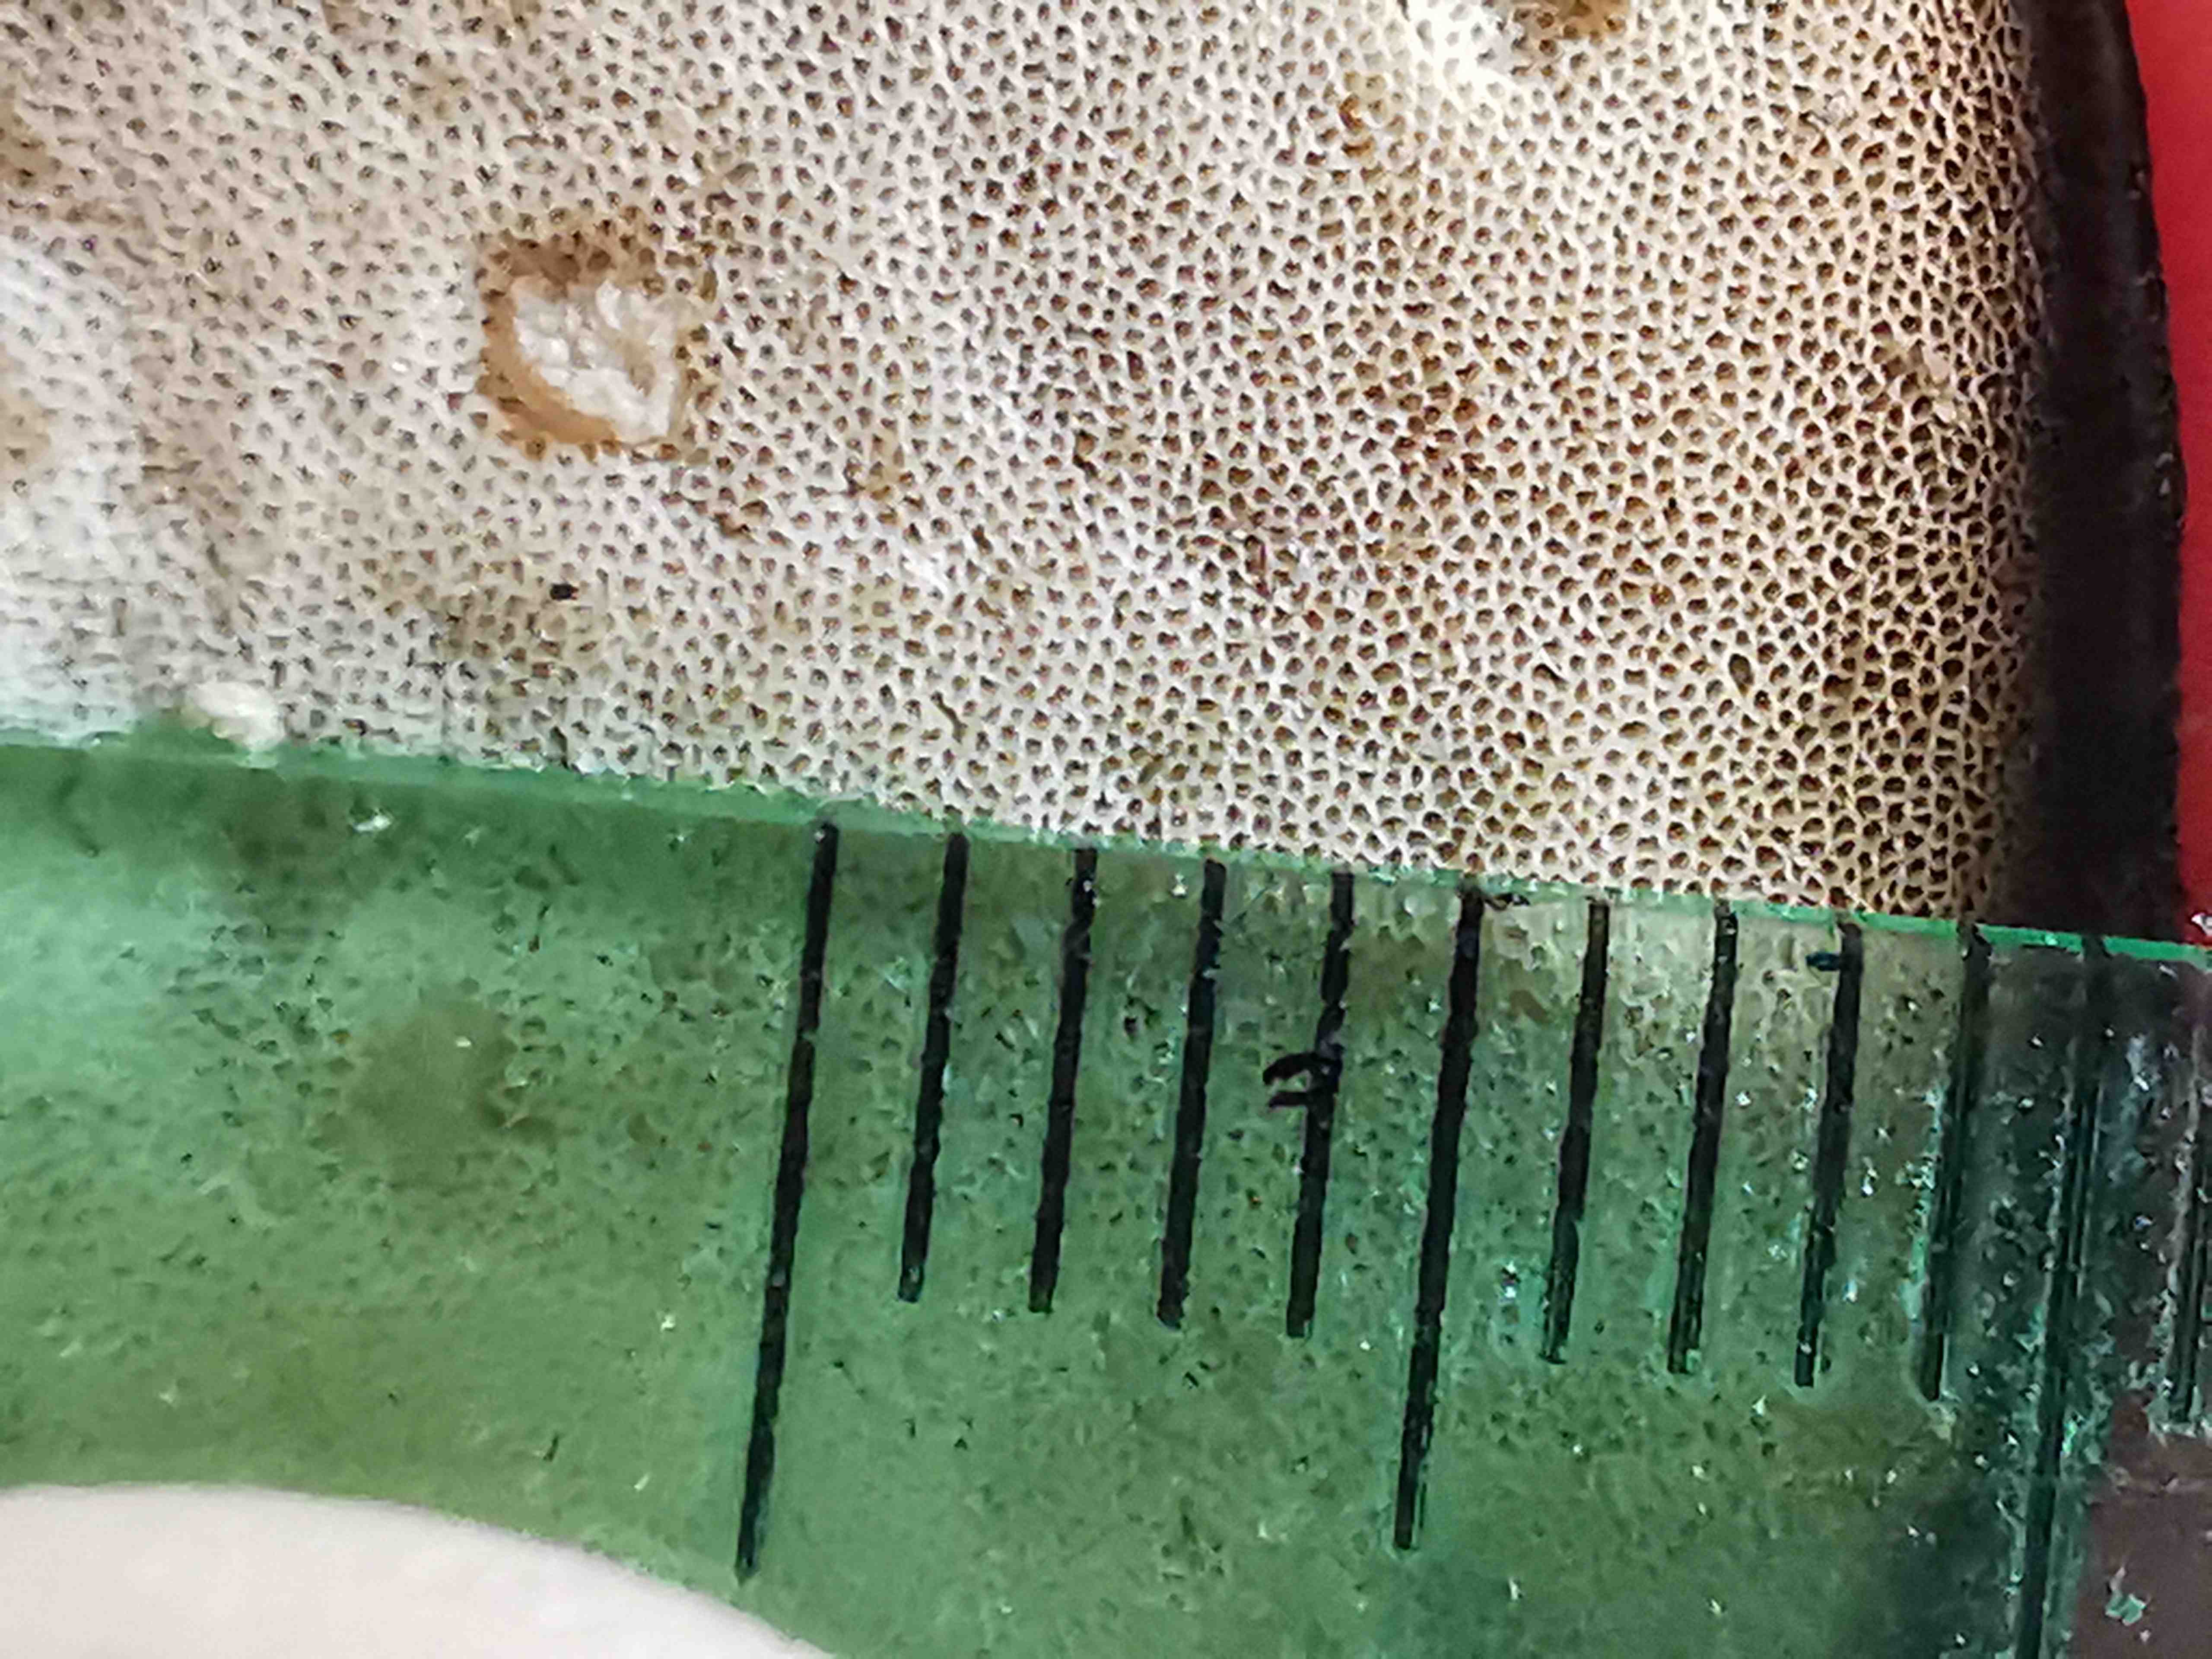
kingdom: Fungi
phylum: Basidiomycota
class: Agaricomycetes
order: Polyporales
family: Polyporaceae
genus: Lentinus
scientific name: Lentinus substrictus
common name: forårs-stilkporesvamp
